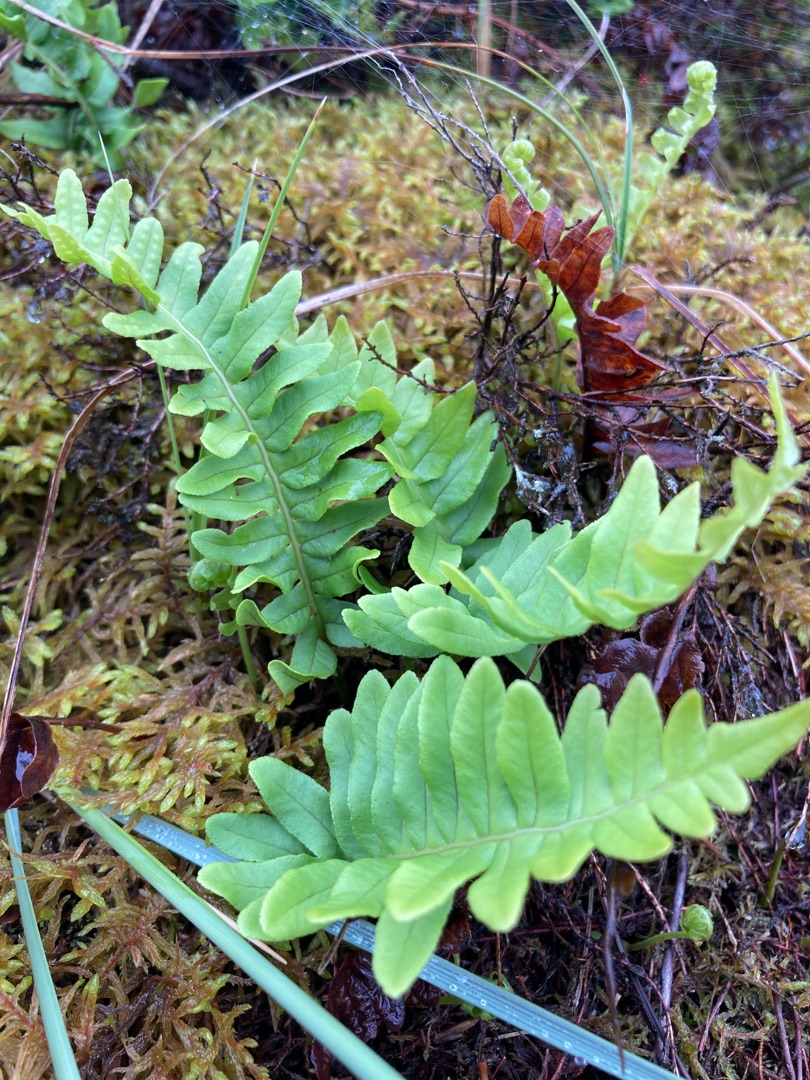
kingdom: Plantae
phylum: Tracheophyta
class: Polypodiopsida
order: Polypodiales
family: Polypodiaceae
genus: Polypodium
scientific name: Polypodium vulgare
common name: Almindelig engelsød
